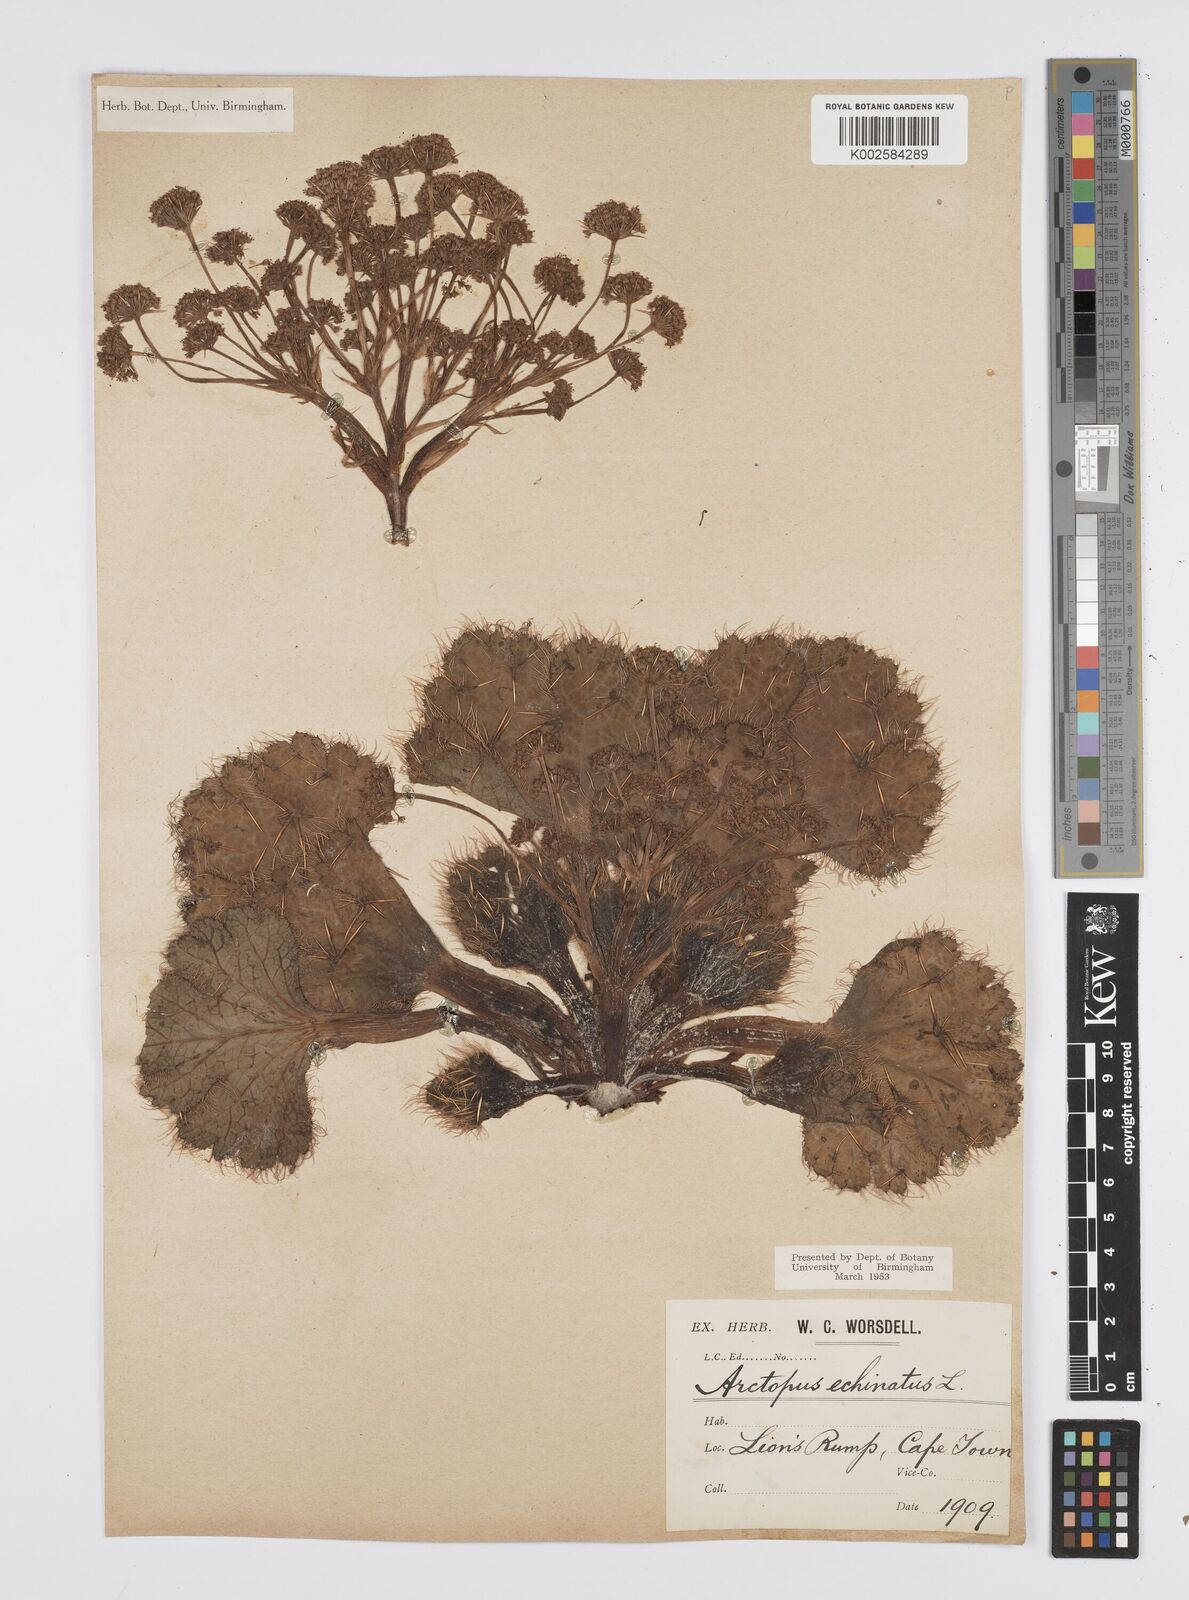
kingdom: Plantae
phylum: Tracheophyta
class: Magnoliopsida
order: Apiales
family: Apiaceae
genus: Arctopus
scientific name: Arctopus echinatus
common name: Platdoring
